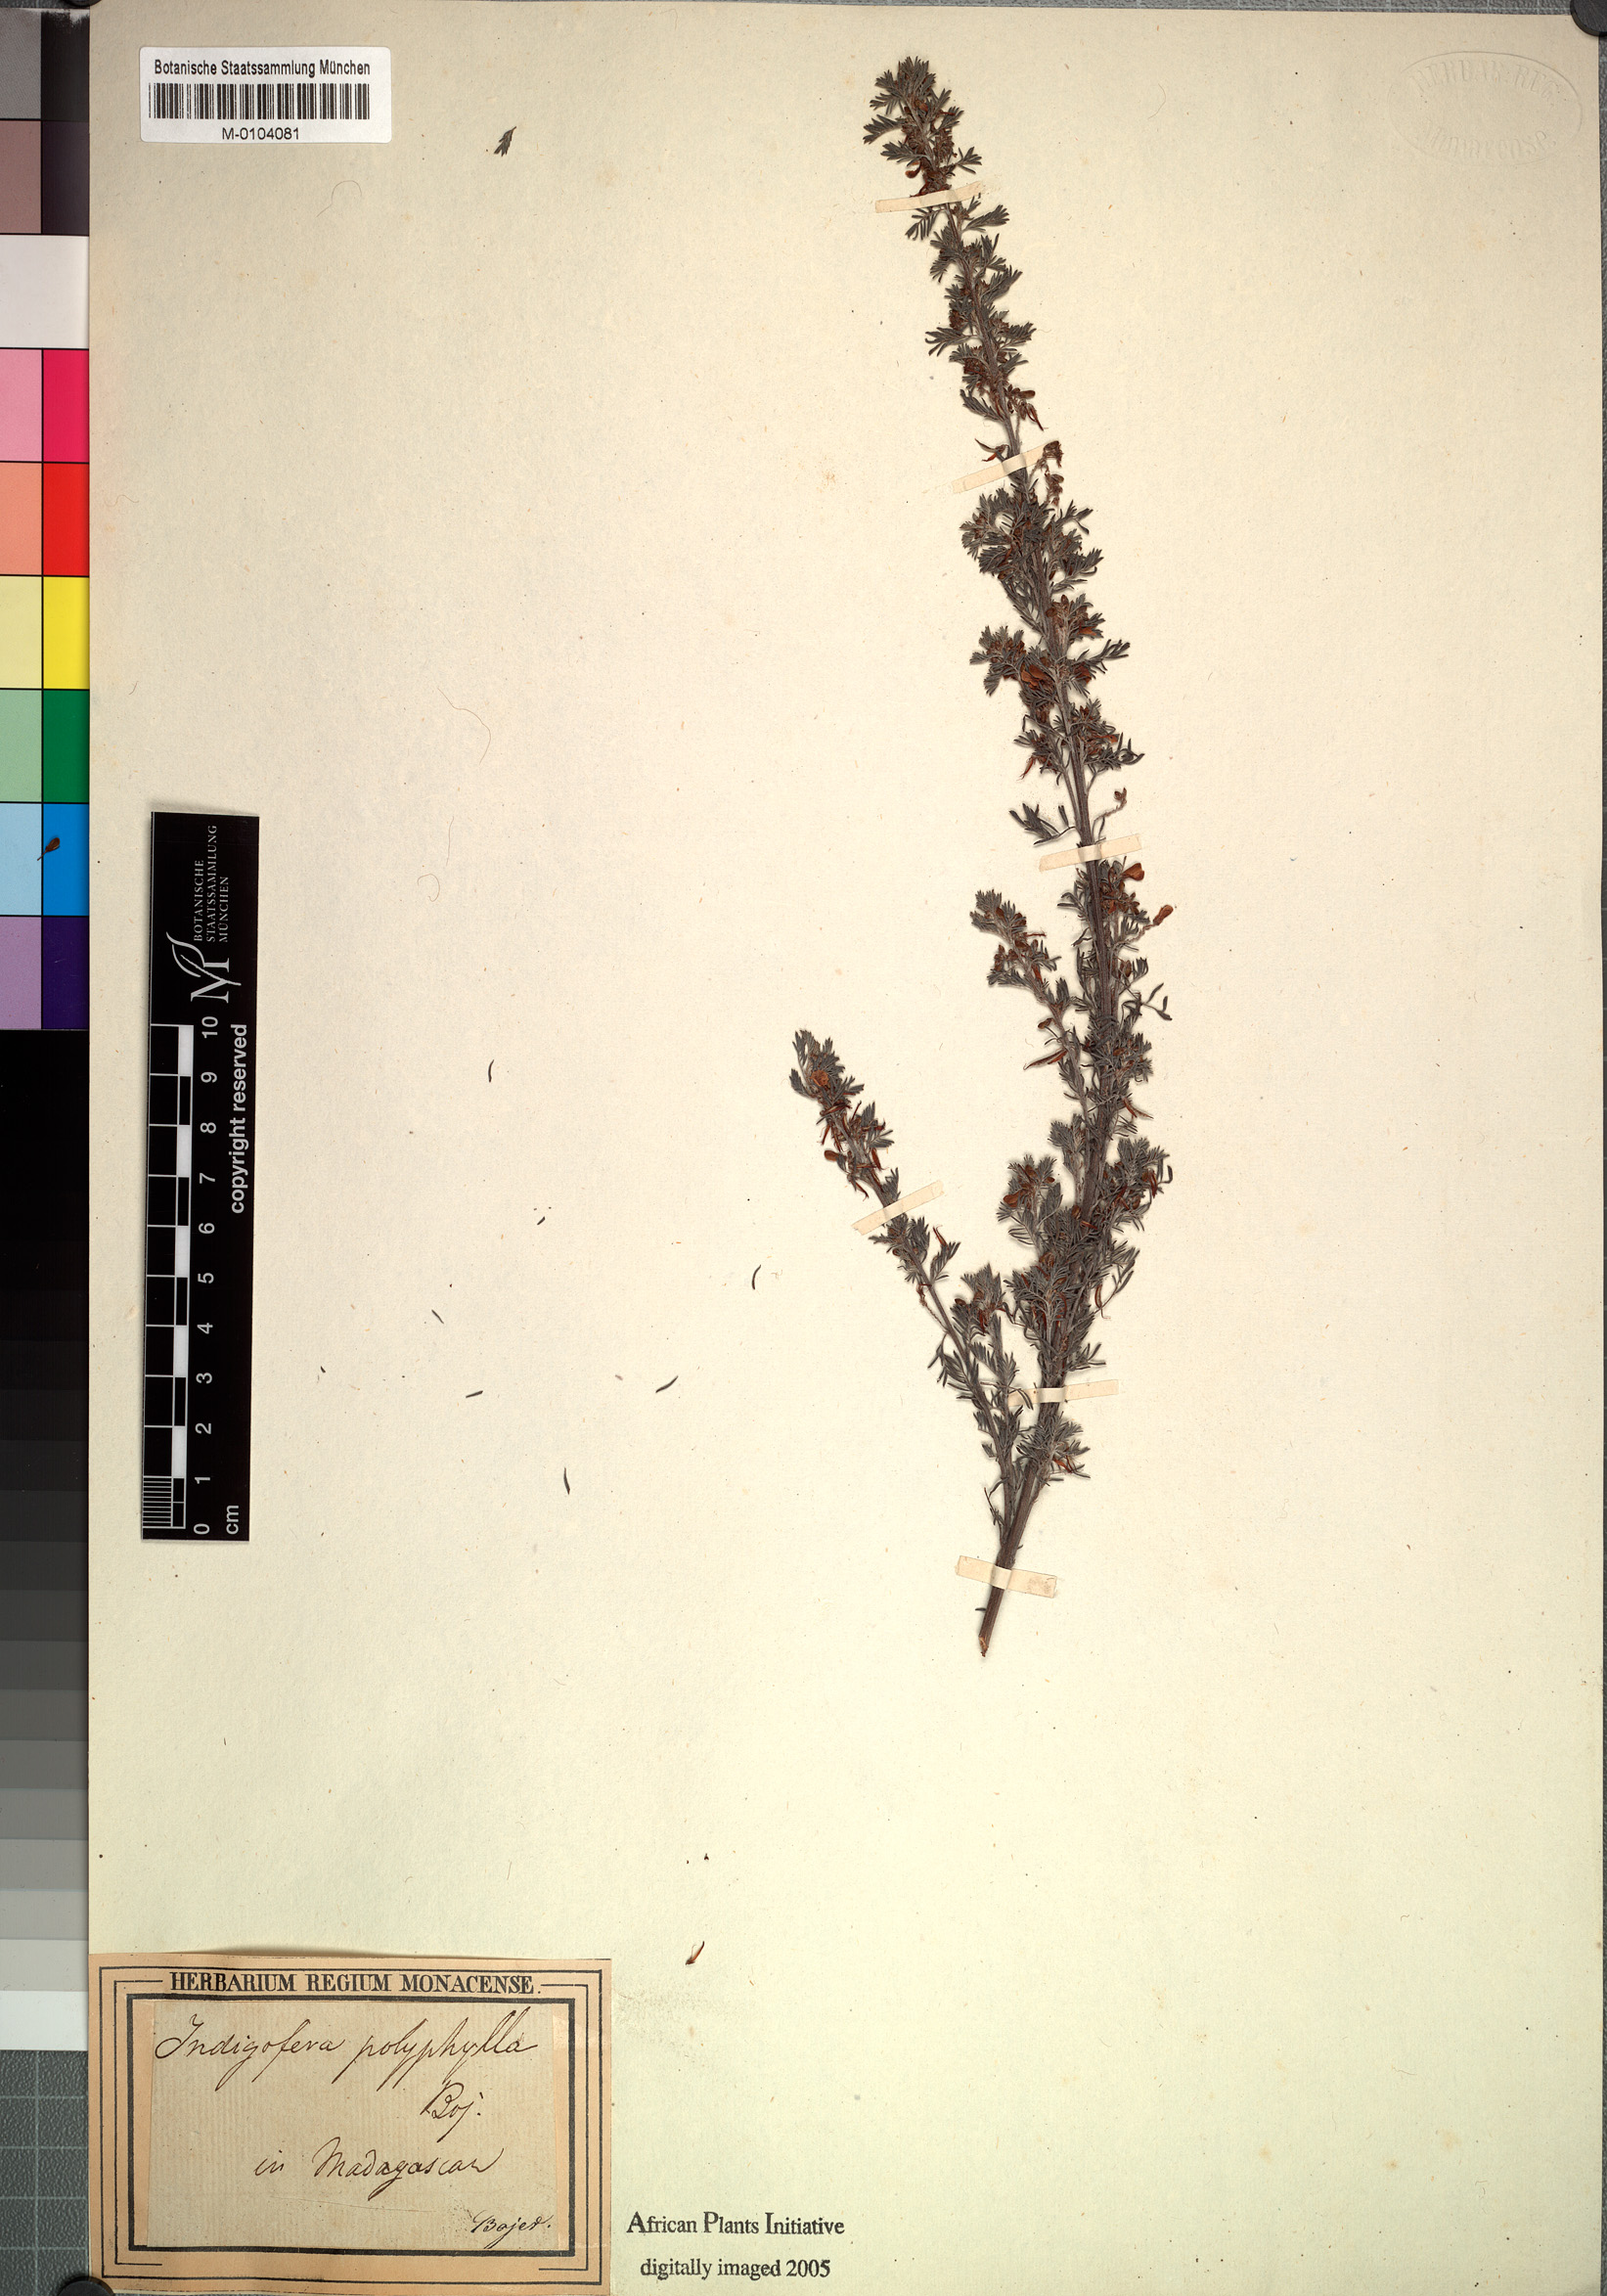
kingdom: Plantae
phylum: Tracheophyta
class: Magnoliopsida
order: Fabales
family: Fabaceae
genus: Indigofera
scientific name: Indigofera dosua
